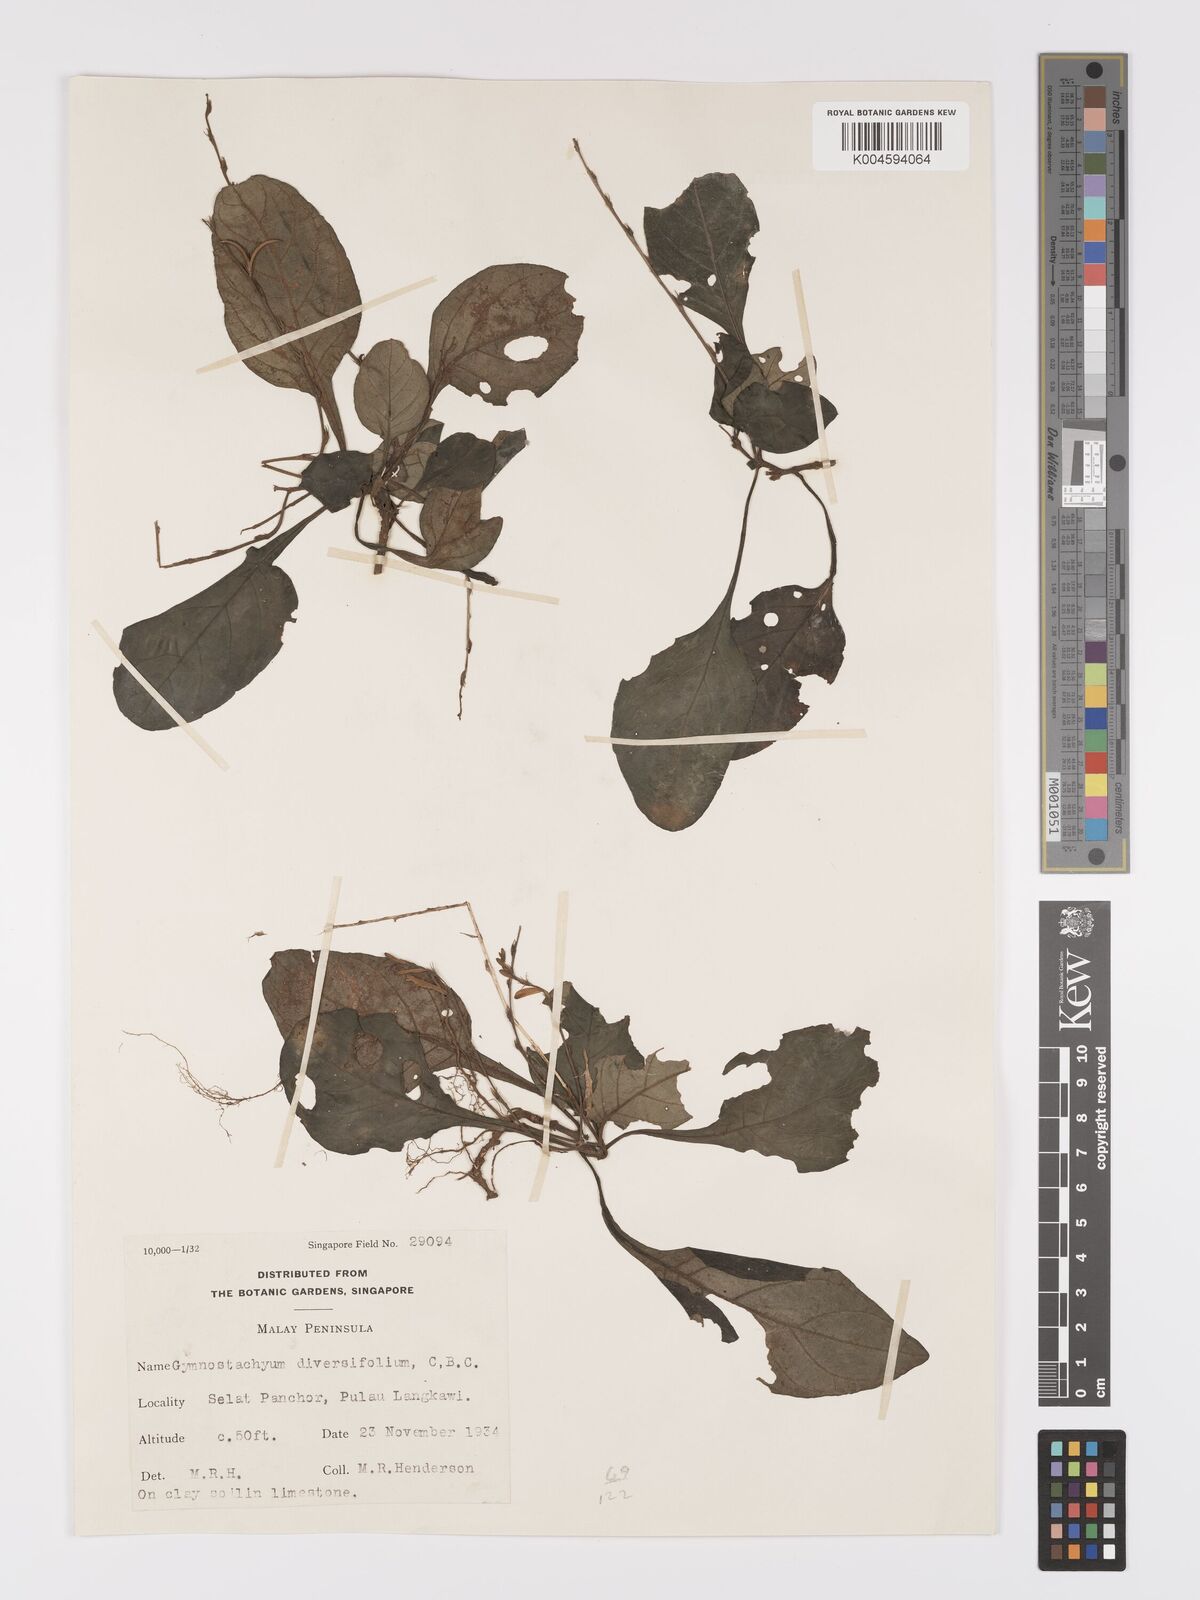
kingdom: Plantae
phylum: Tracheophyta
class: Magnoliopsida
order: Lamiales
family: Acanthaceae
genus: Gymnostachyum
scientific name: Gymnostachyum diversifolium
